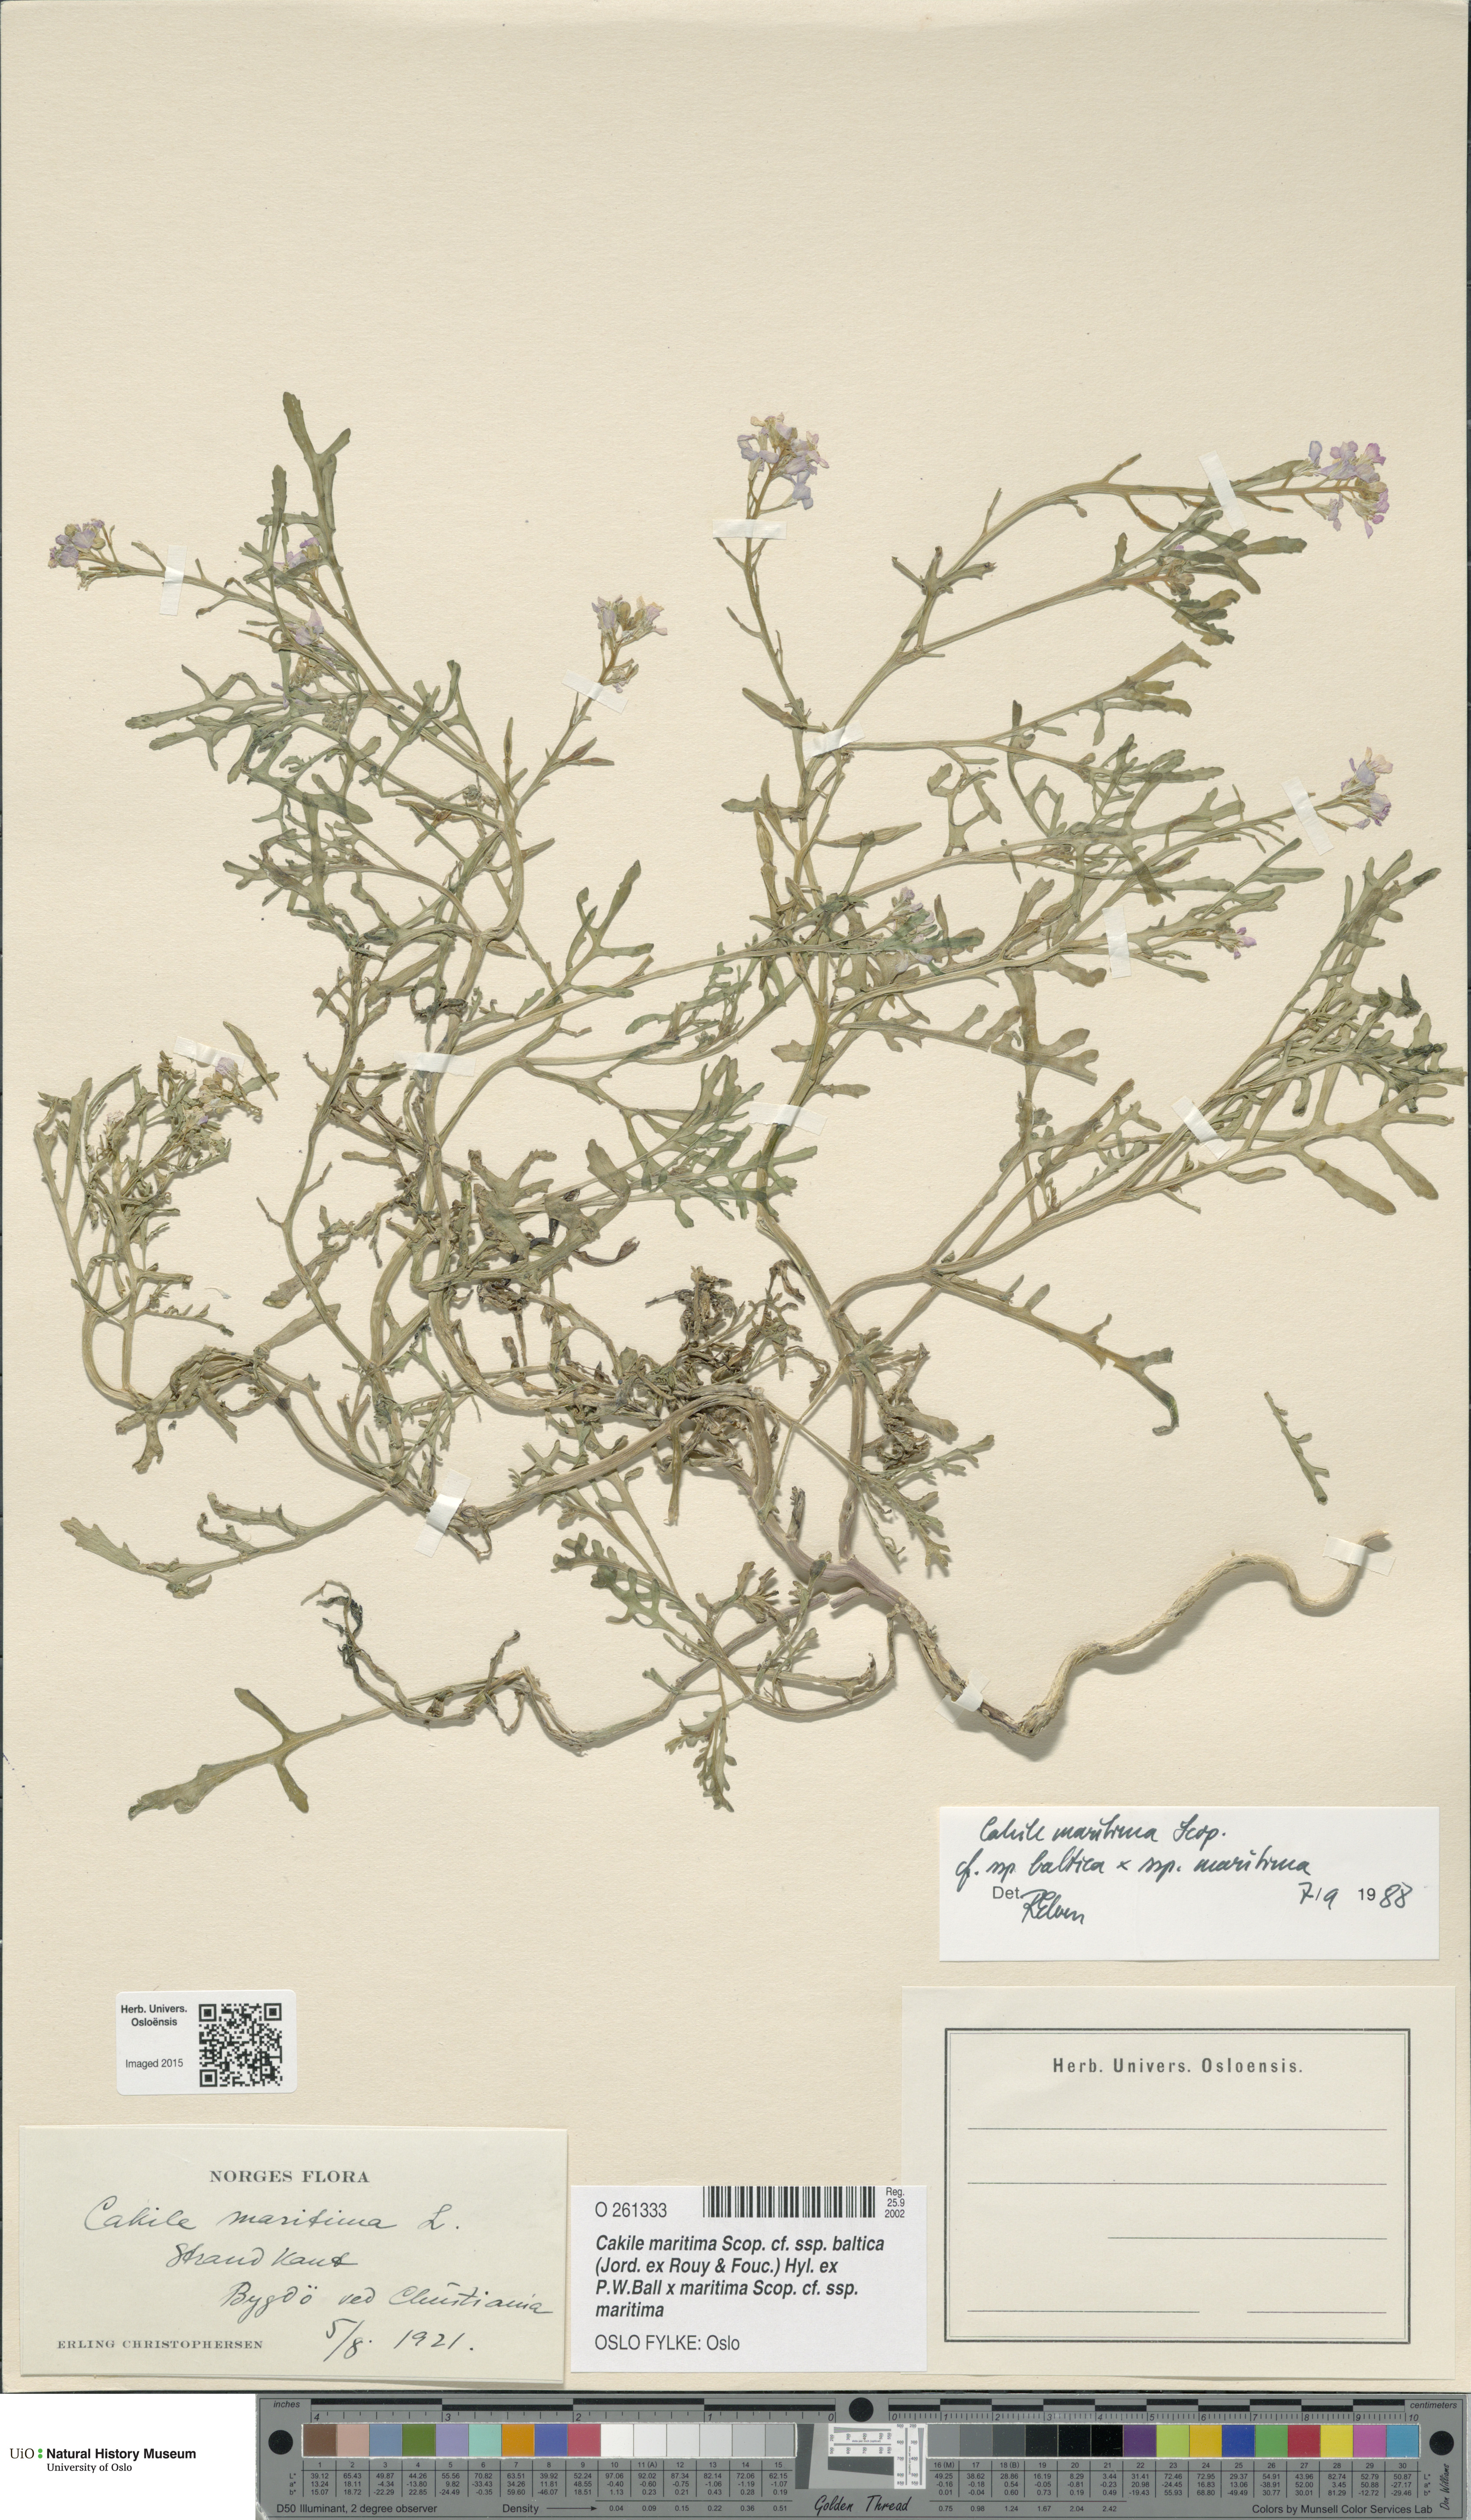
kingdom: Plantae
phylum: Tracheophyta
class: Magnoliopsida
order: Brassicales
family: Brassicaceae
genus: Cakile
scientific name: Cakile
